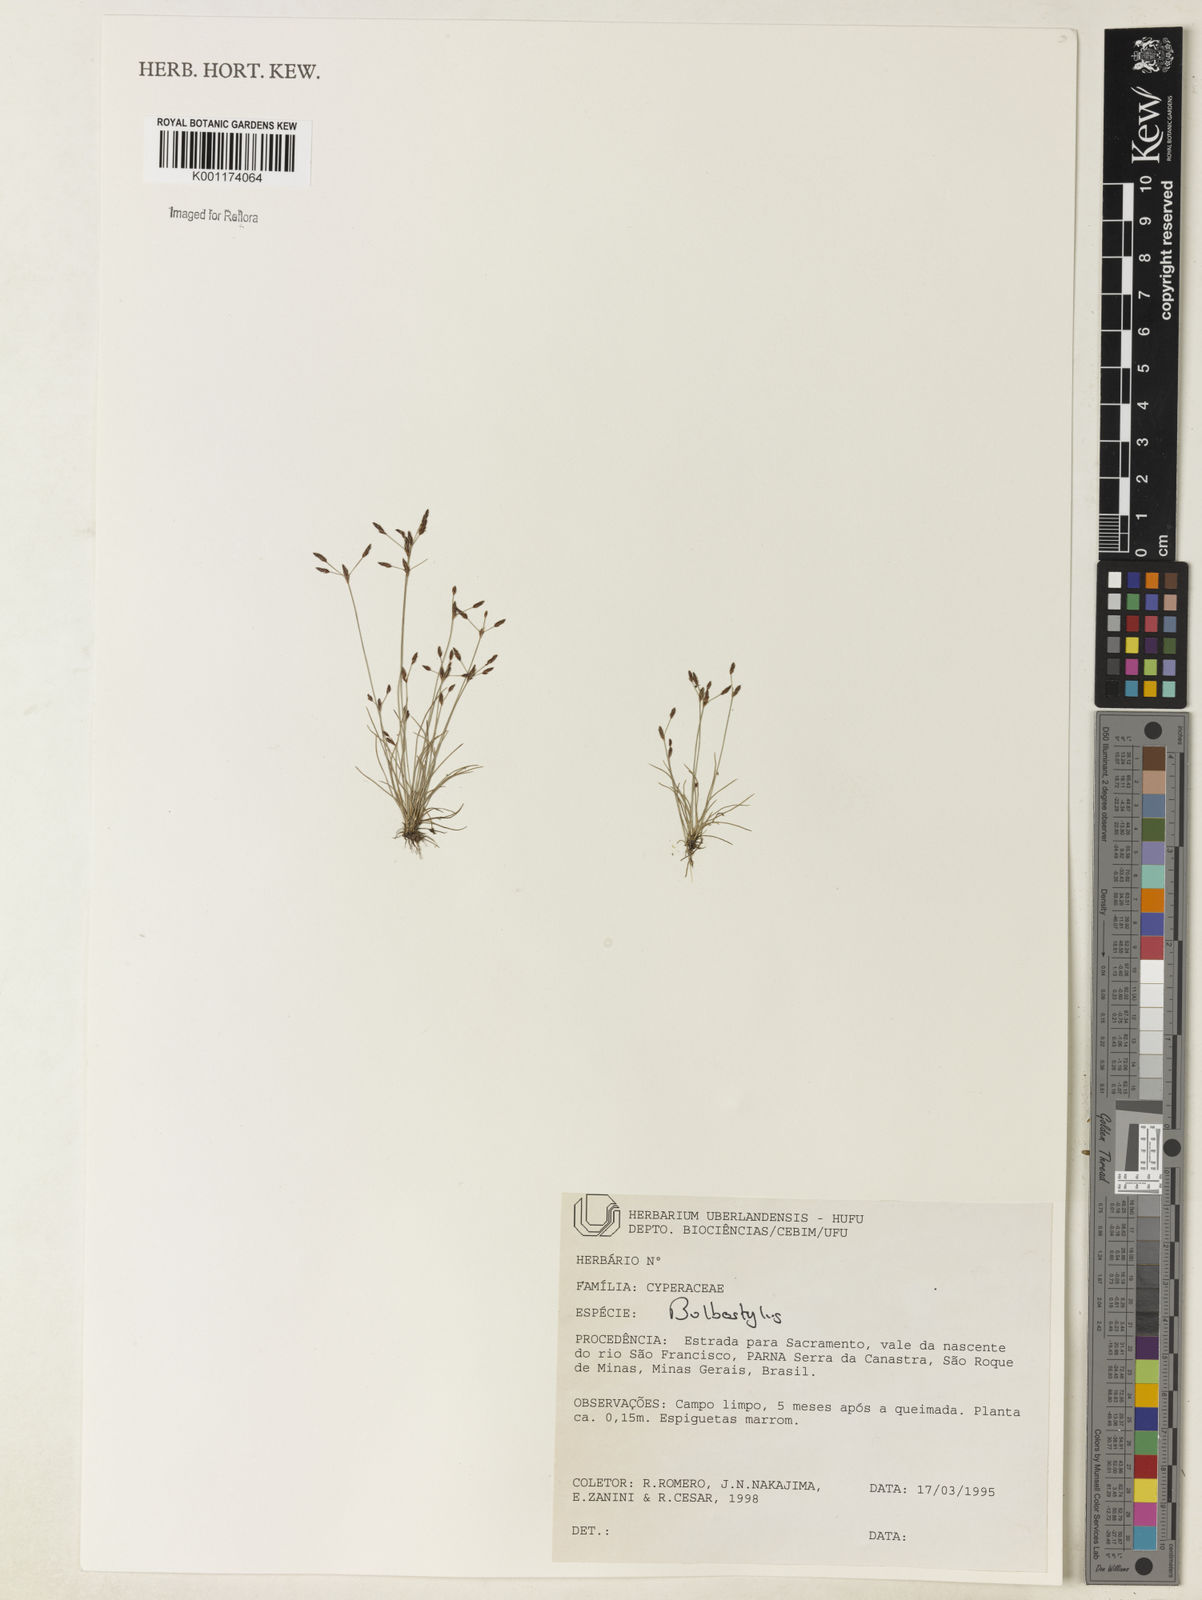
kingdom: Plantae
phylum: Tracheophyta
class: Liliopsida
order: Poales
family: Cyperaceae
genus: Bulbostylis
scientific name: Bulbostylis
